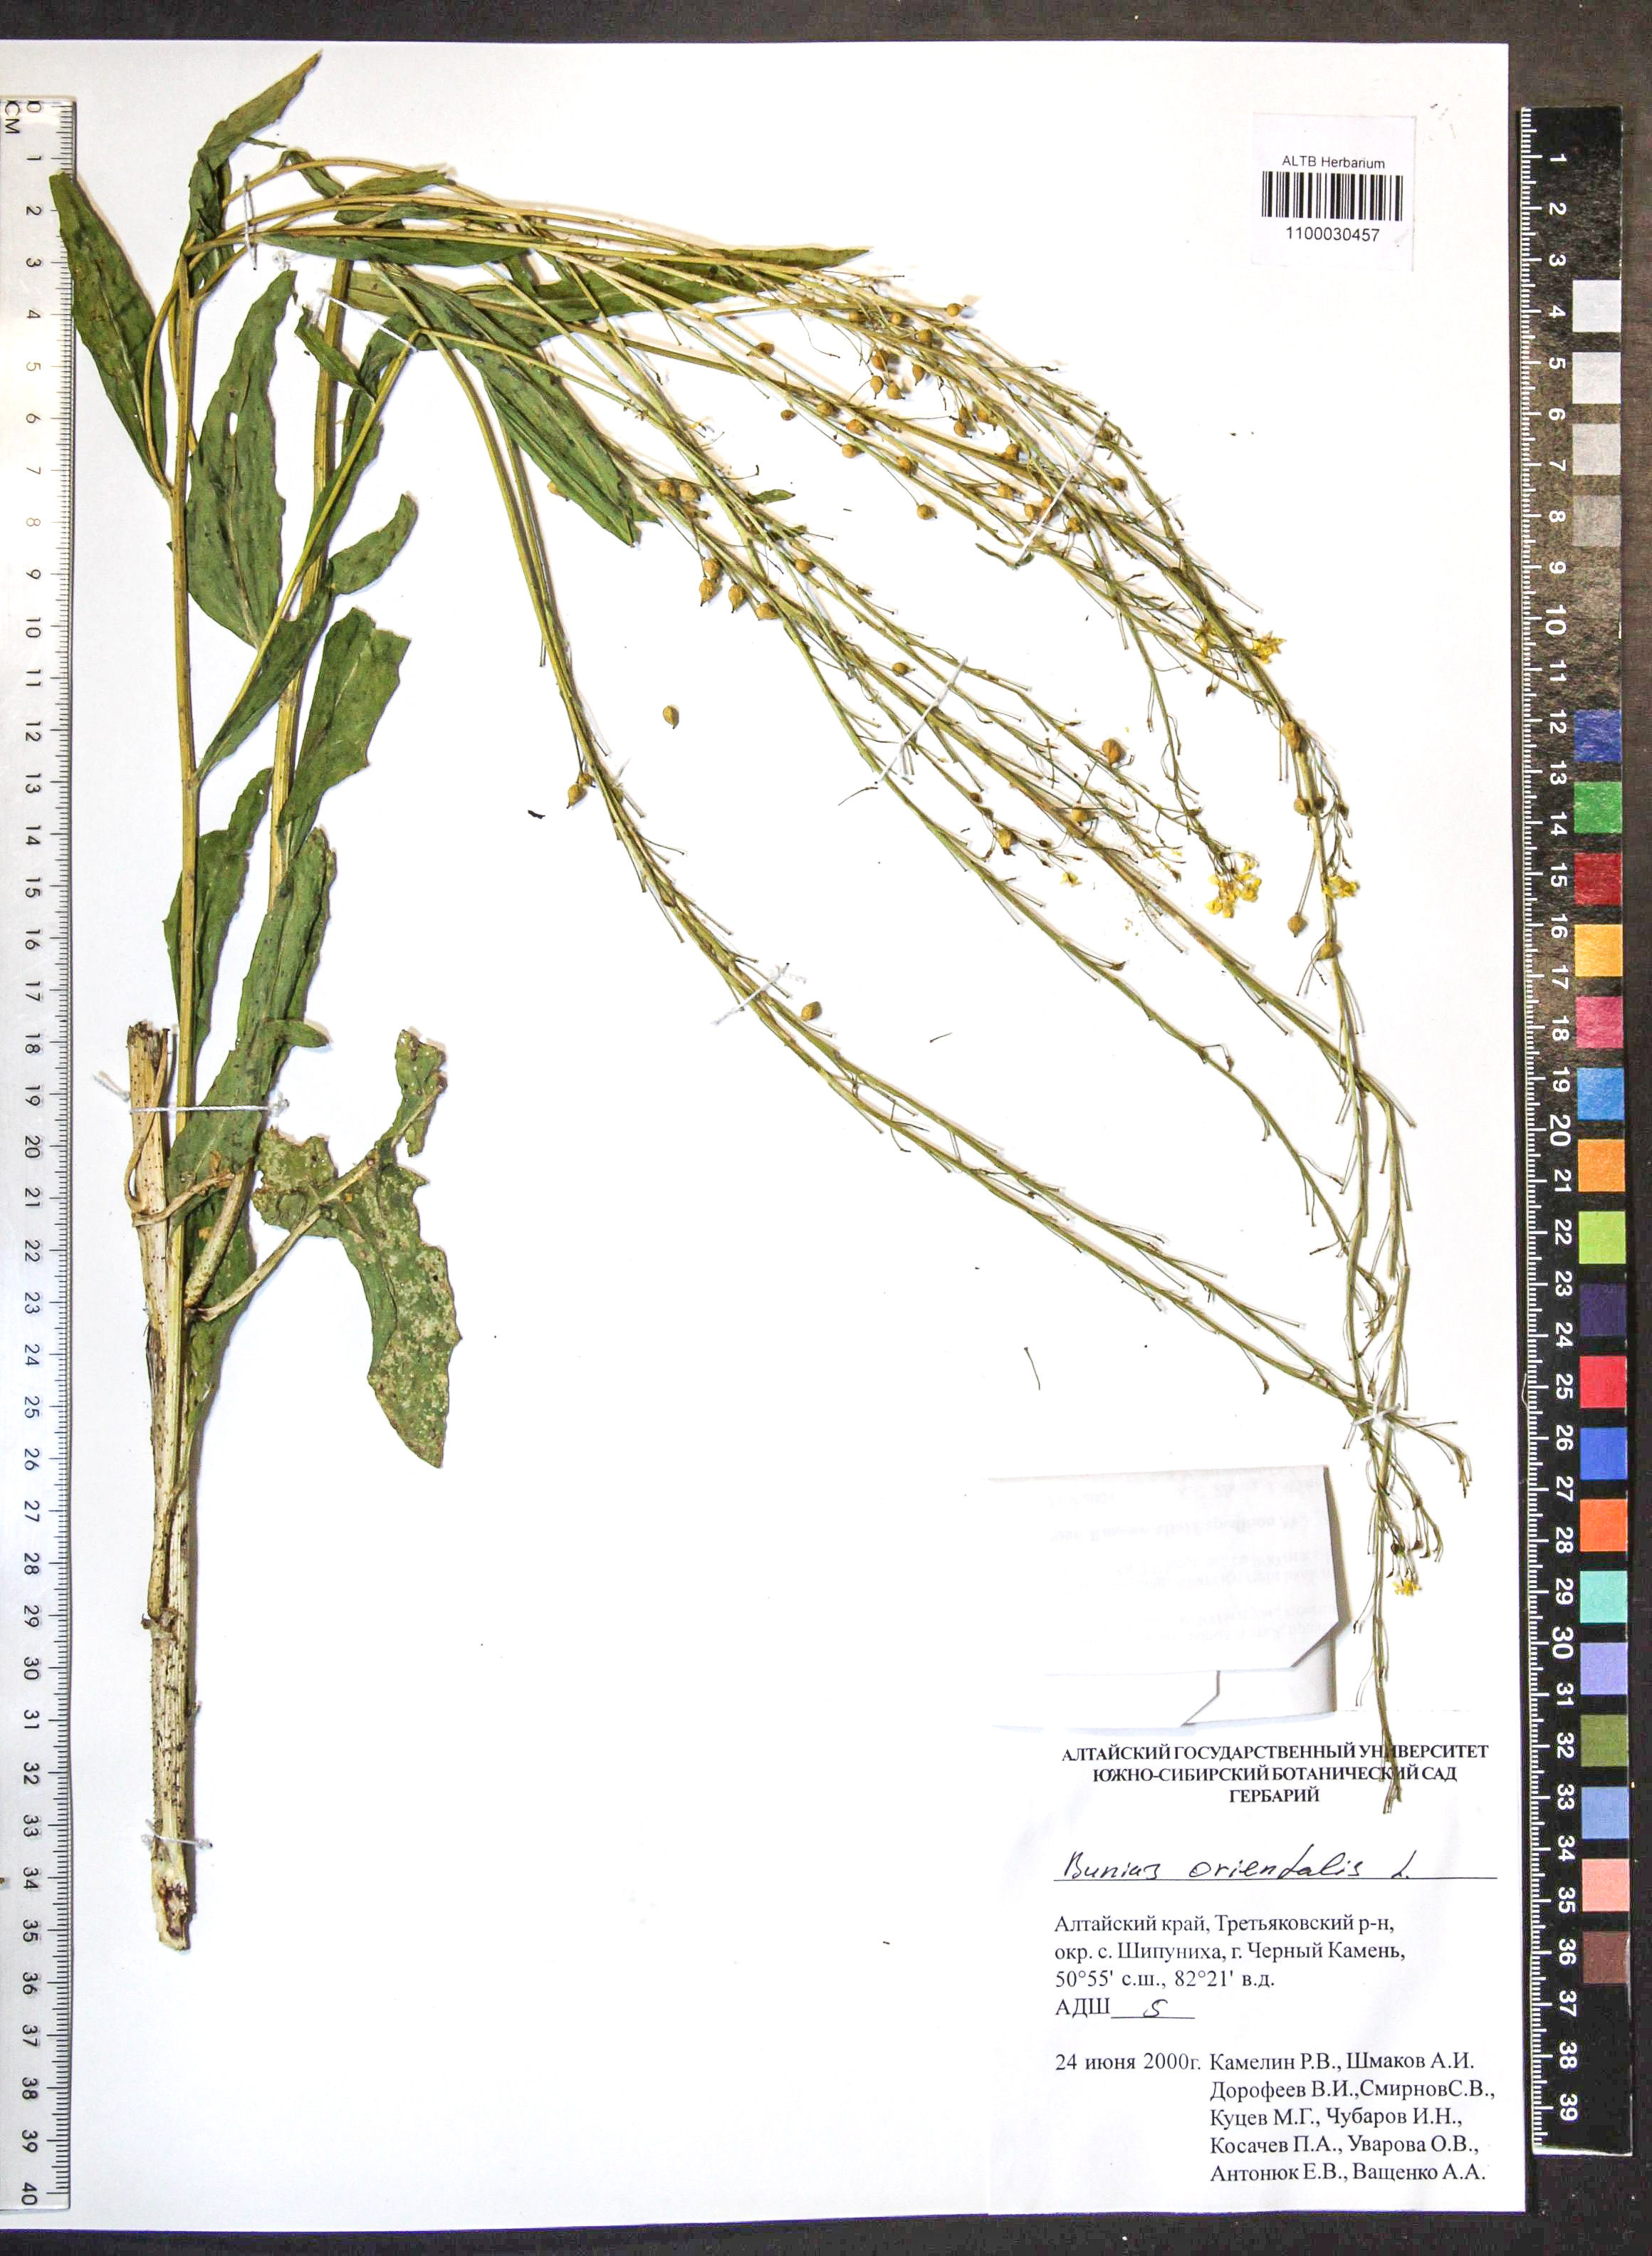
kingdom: Plantae
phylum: Tracheophyta
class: Magnoliopsida
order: Brassicales
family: Brassicaceae
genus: Bunias
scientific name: Bunias orientalis
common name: Warty-cabbage
